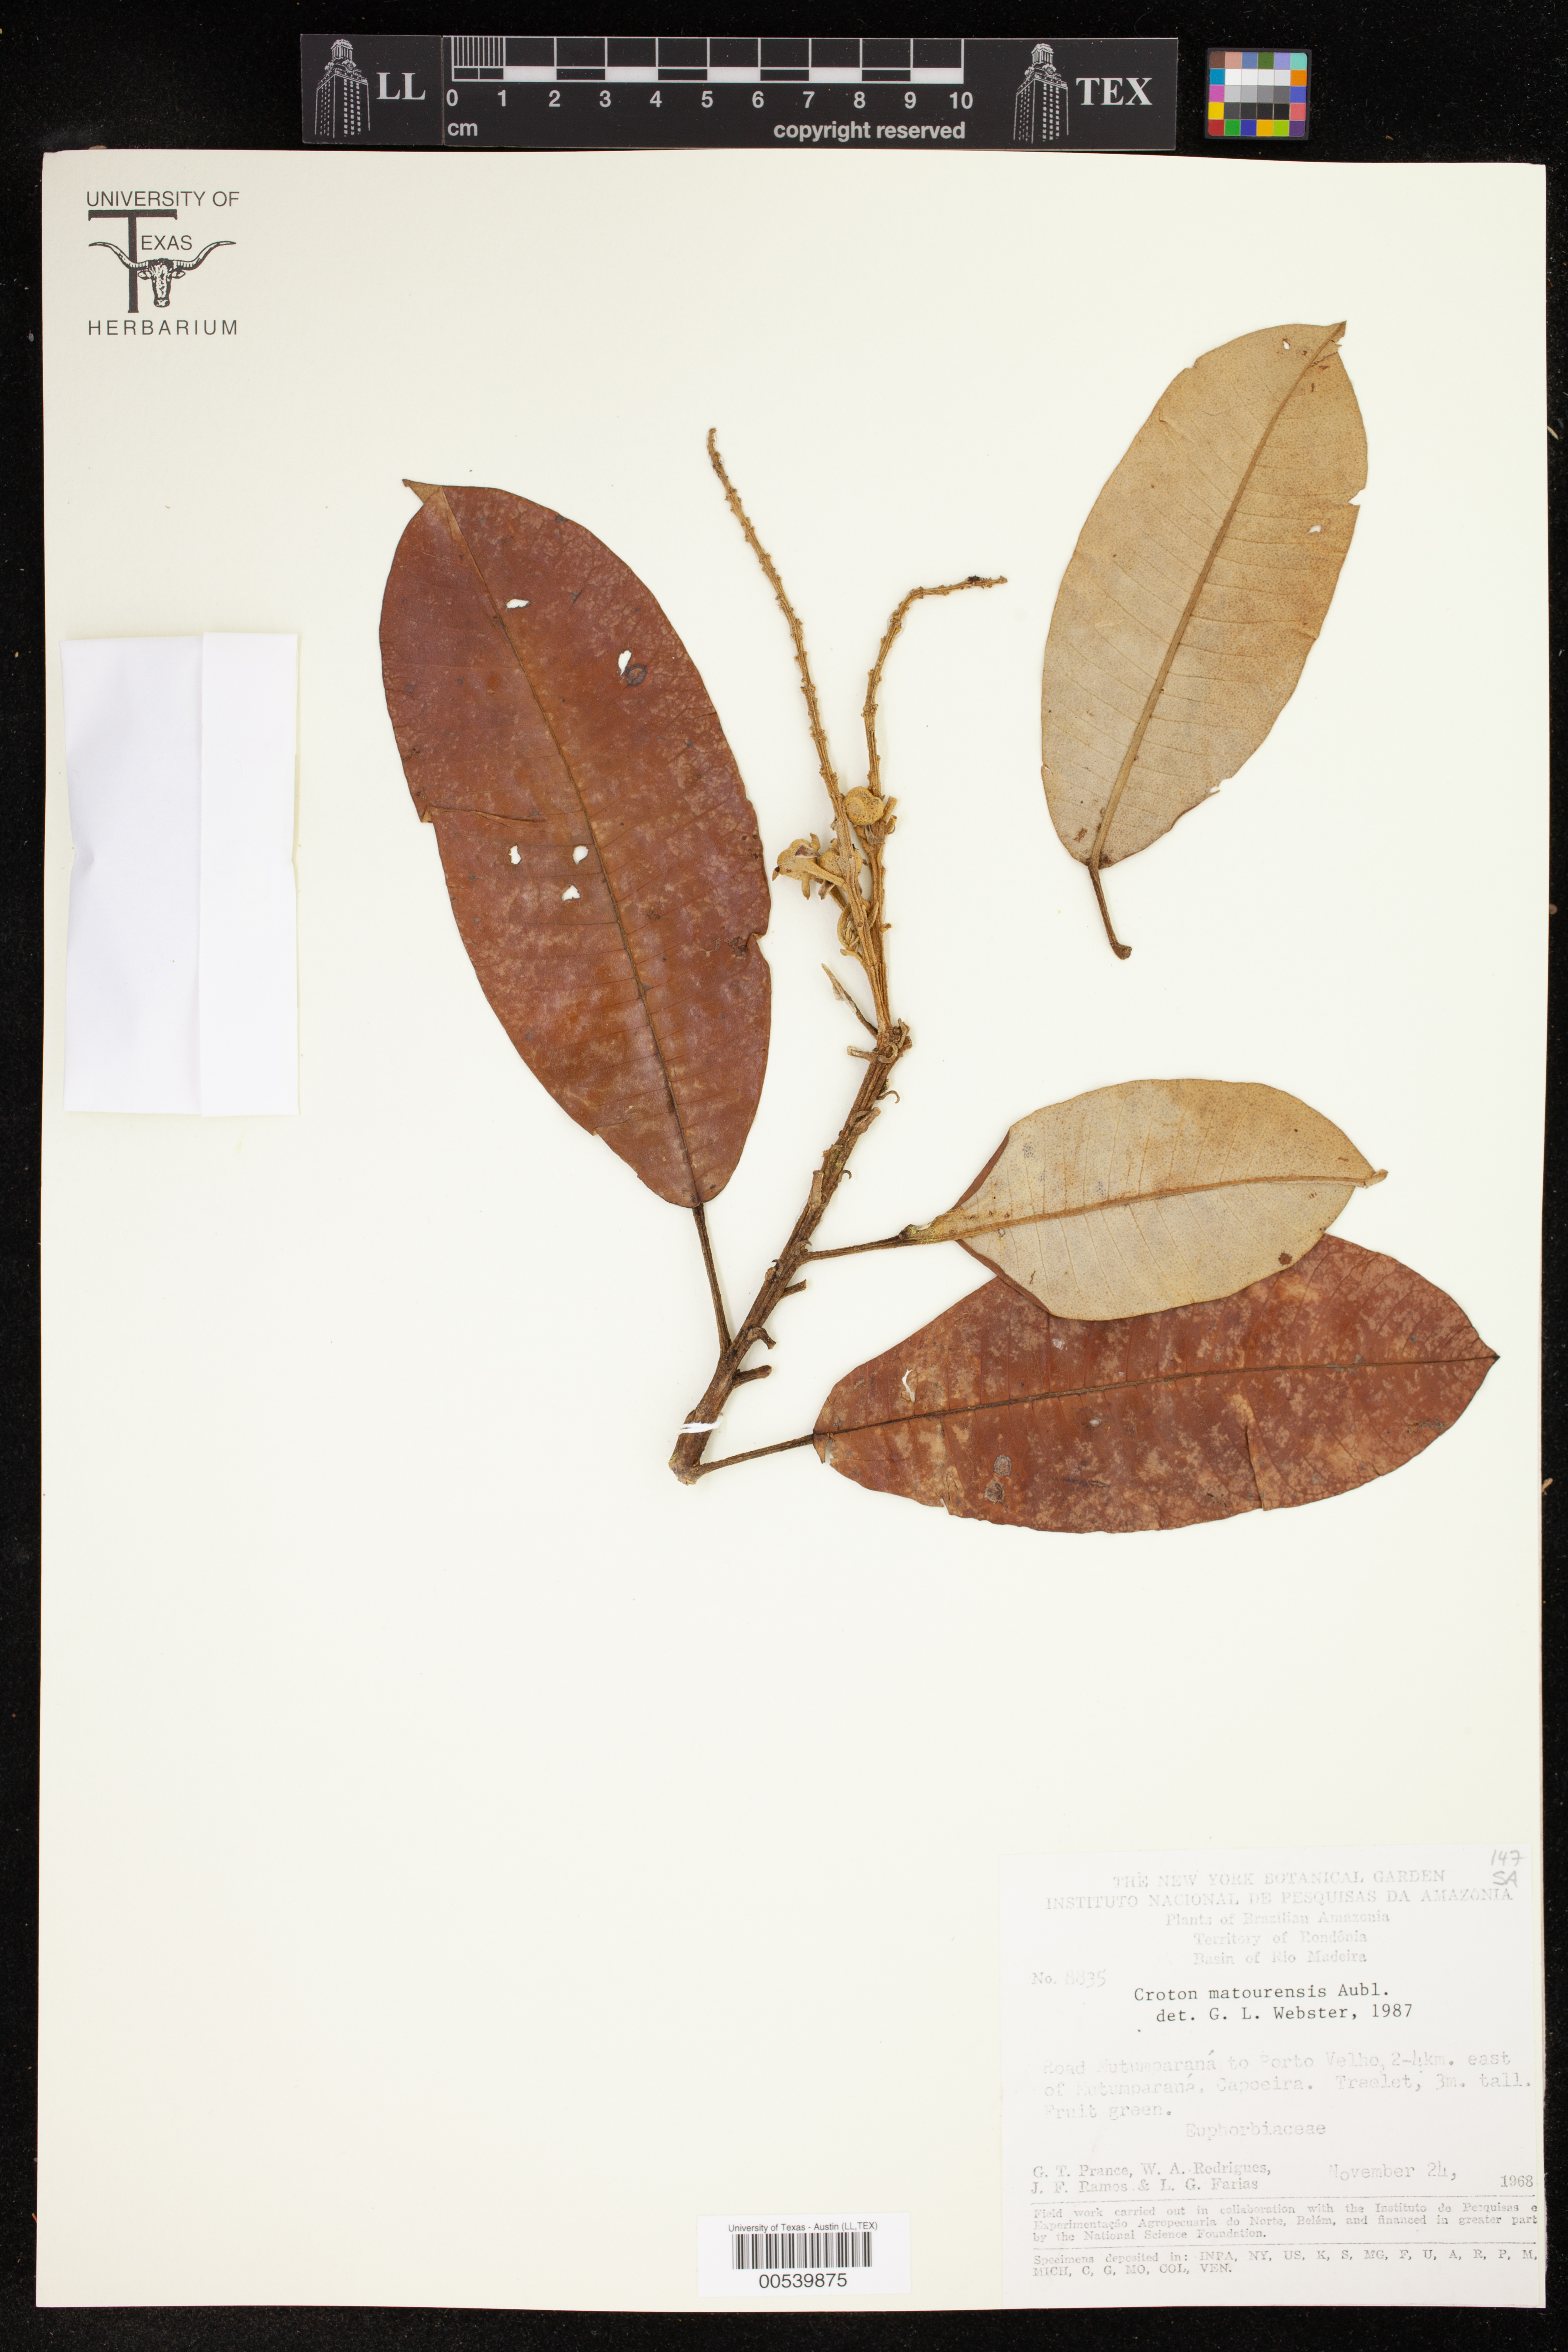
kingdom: Plantae
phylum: Tracheophyta
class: Magnoliopsida
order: Malpighiales
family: Euphorbiaceae
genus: Croton
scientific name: Croton matourensis
